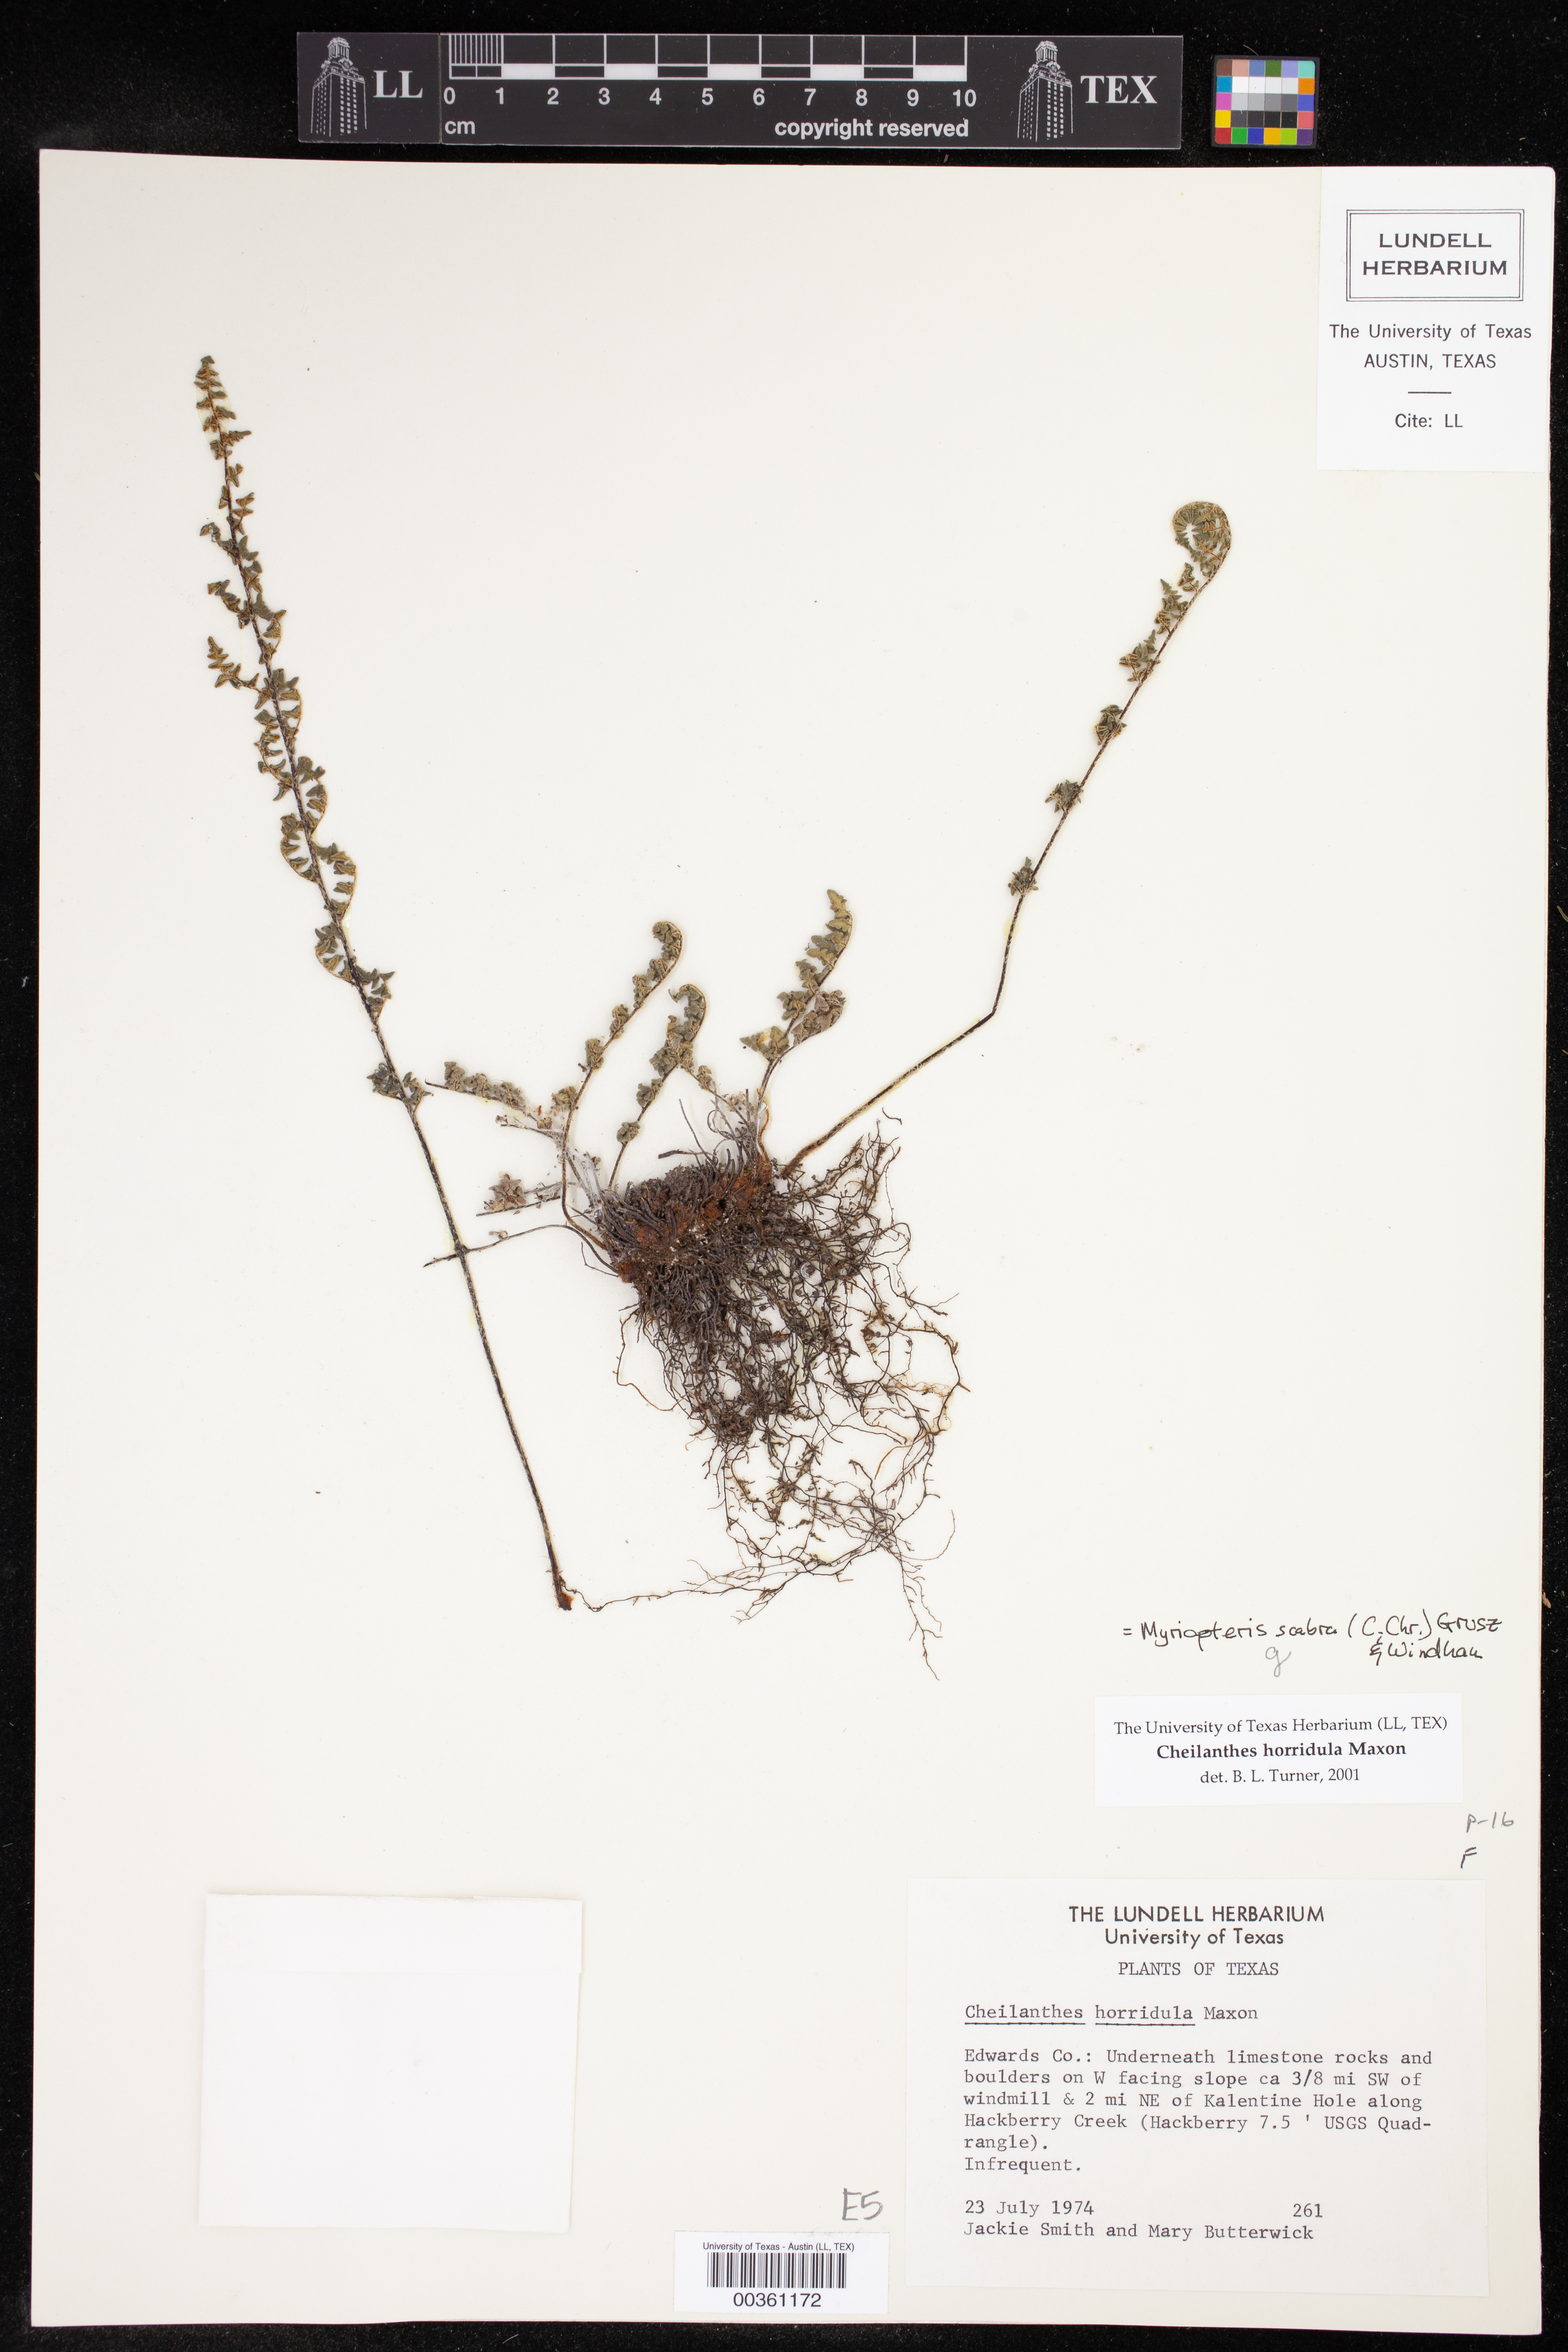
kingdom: Plantae
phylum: Tracheophyta
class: Polypodiopsida
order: Polypodiales
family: Pteridaceae
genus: Myriopteris
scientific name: Myriopteris grusziae
